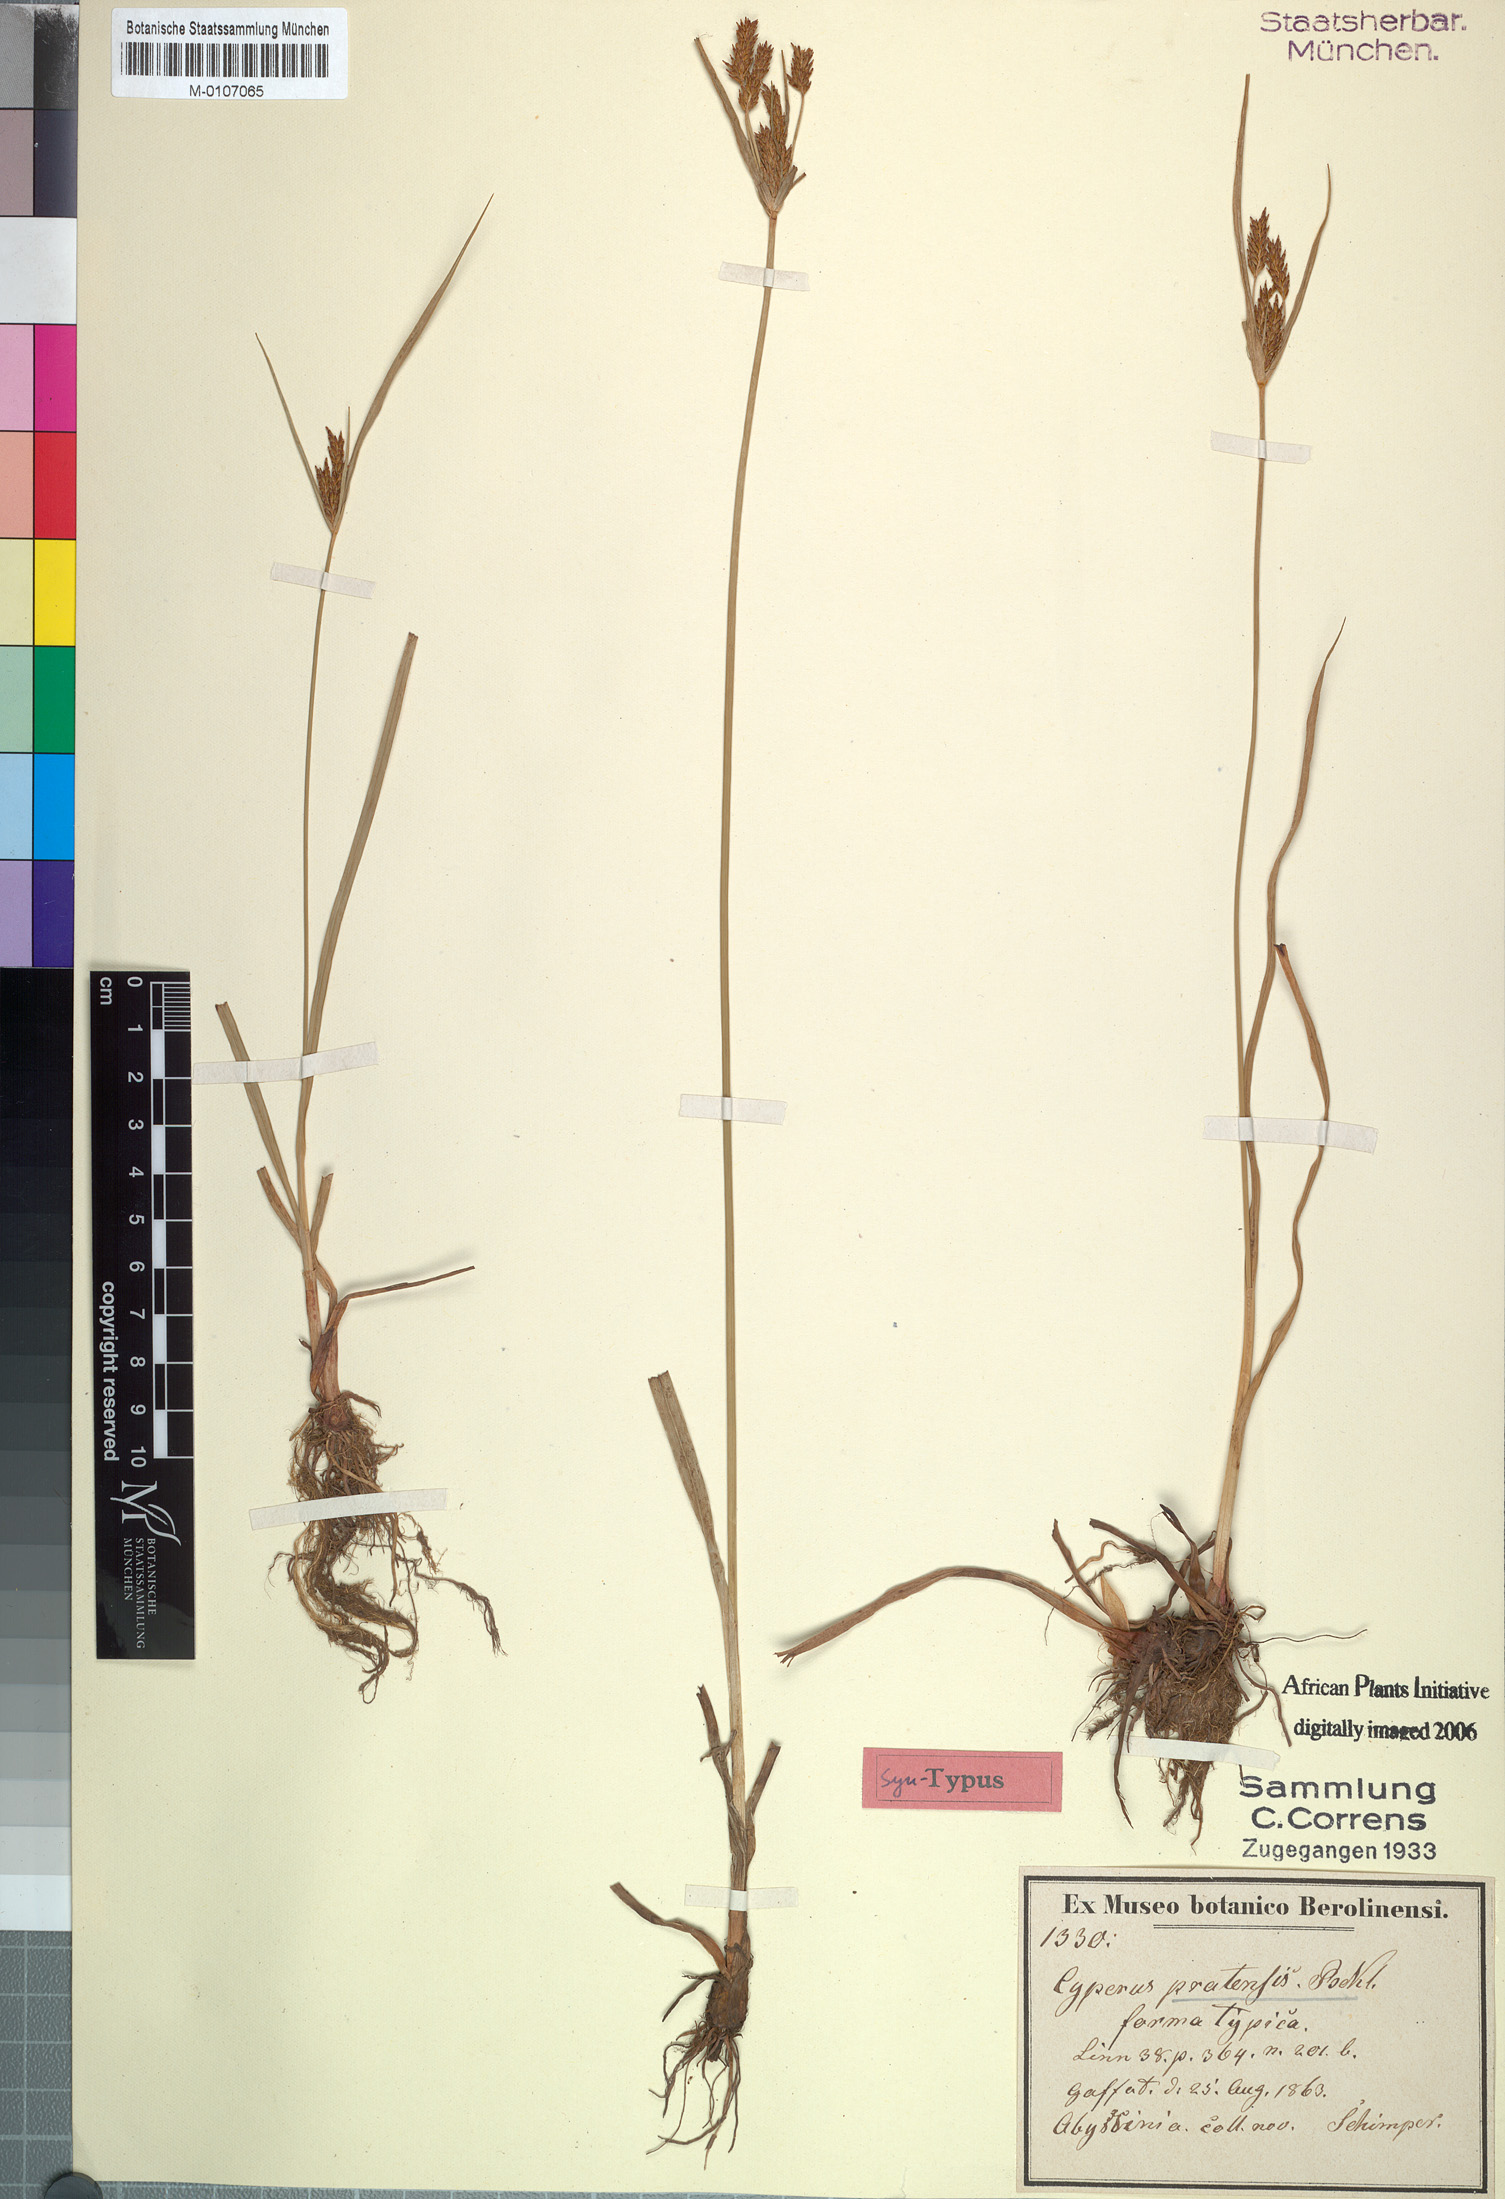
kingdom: Plantae
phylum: Tracheophyta
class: Liliopsida
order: Poales
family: Cyperaceae
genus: Cyperus
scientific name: Cyperus pratensis
